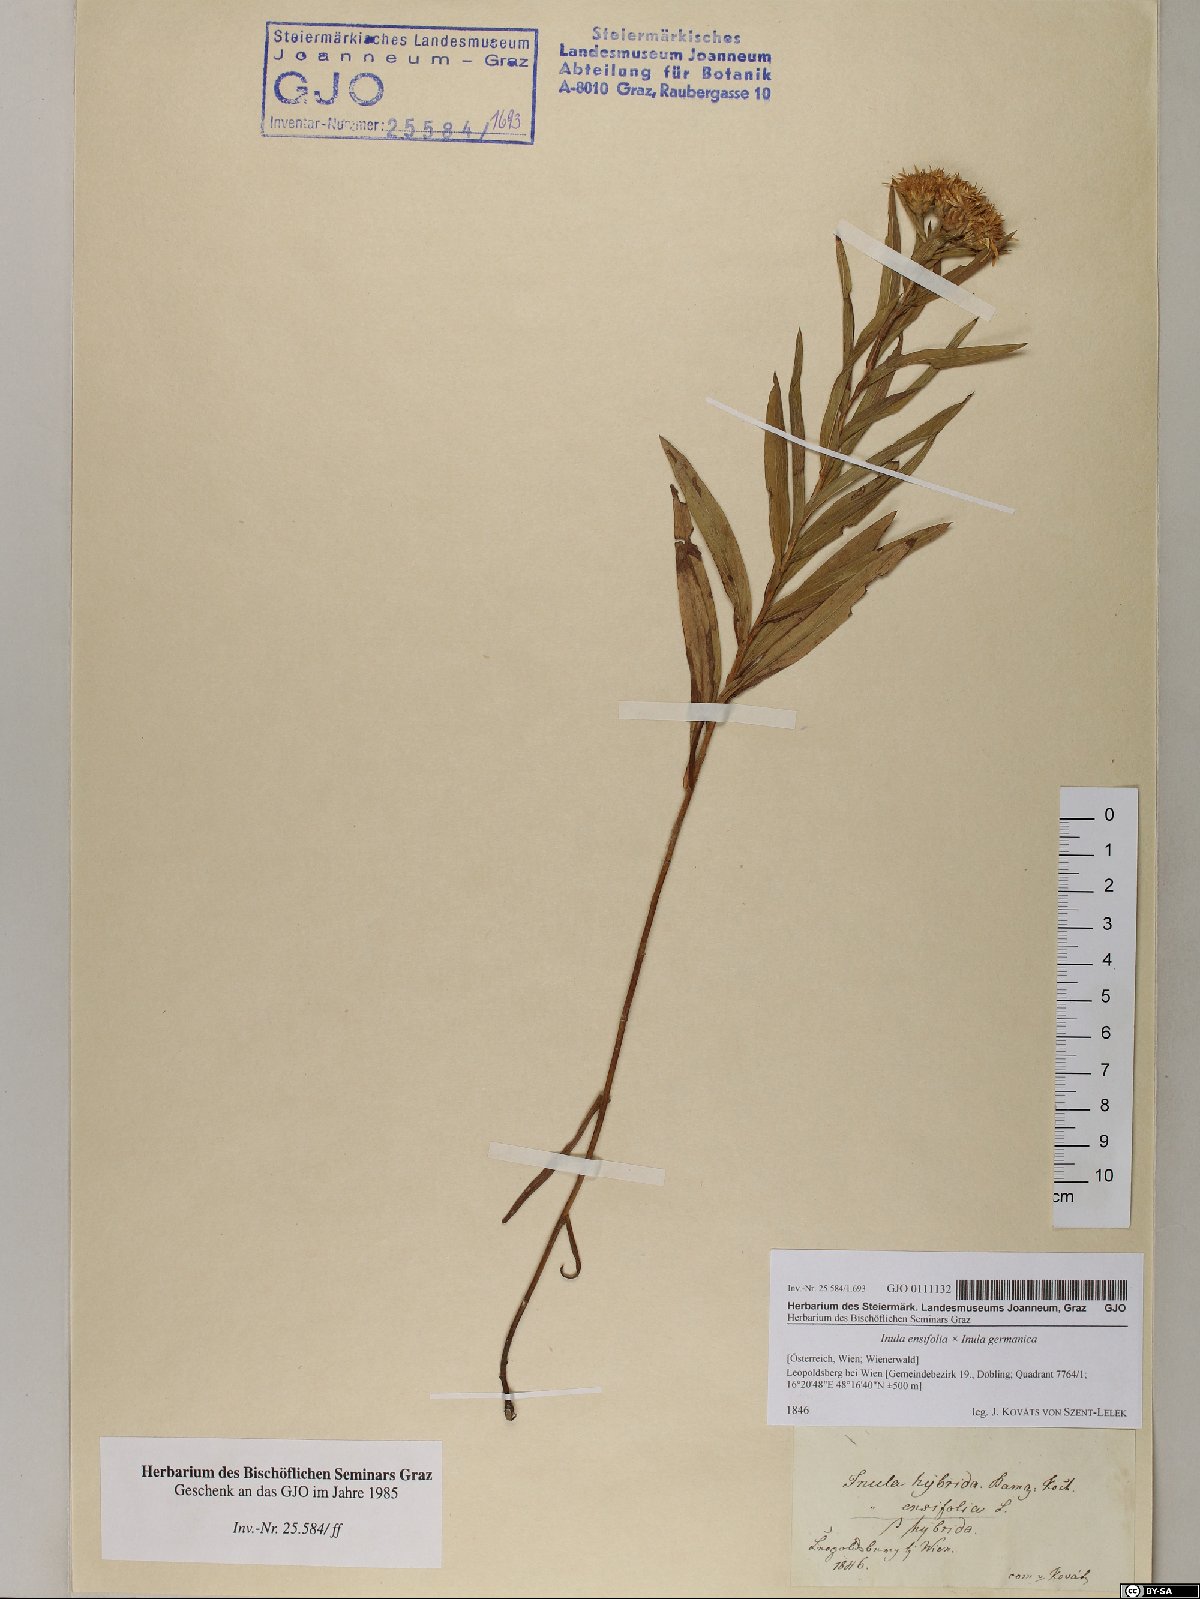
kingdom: Plantae
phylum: Tracheophyta
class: Magnoliopsida
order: Asterales
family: Asteraceae
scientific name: Asteraceae
